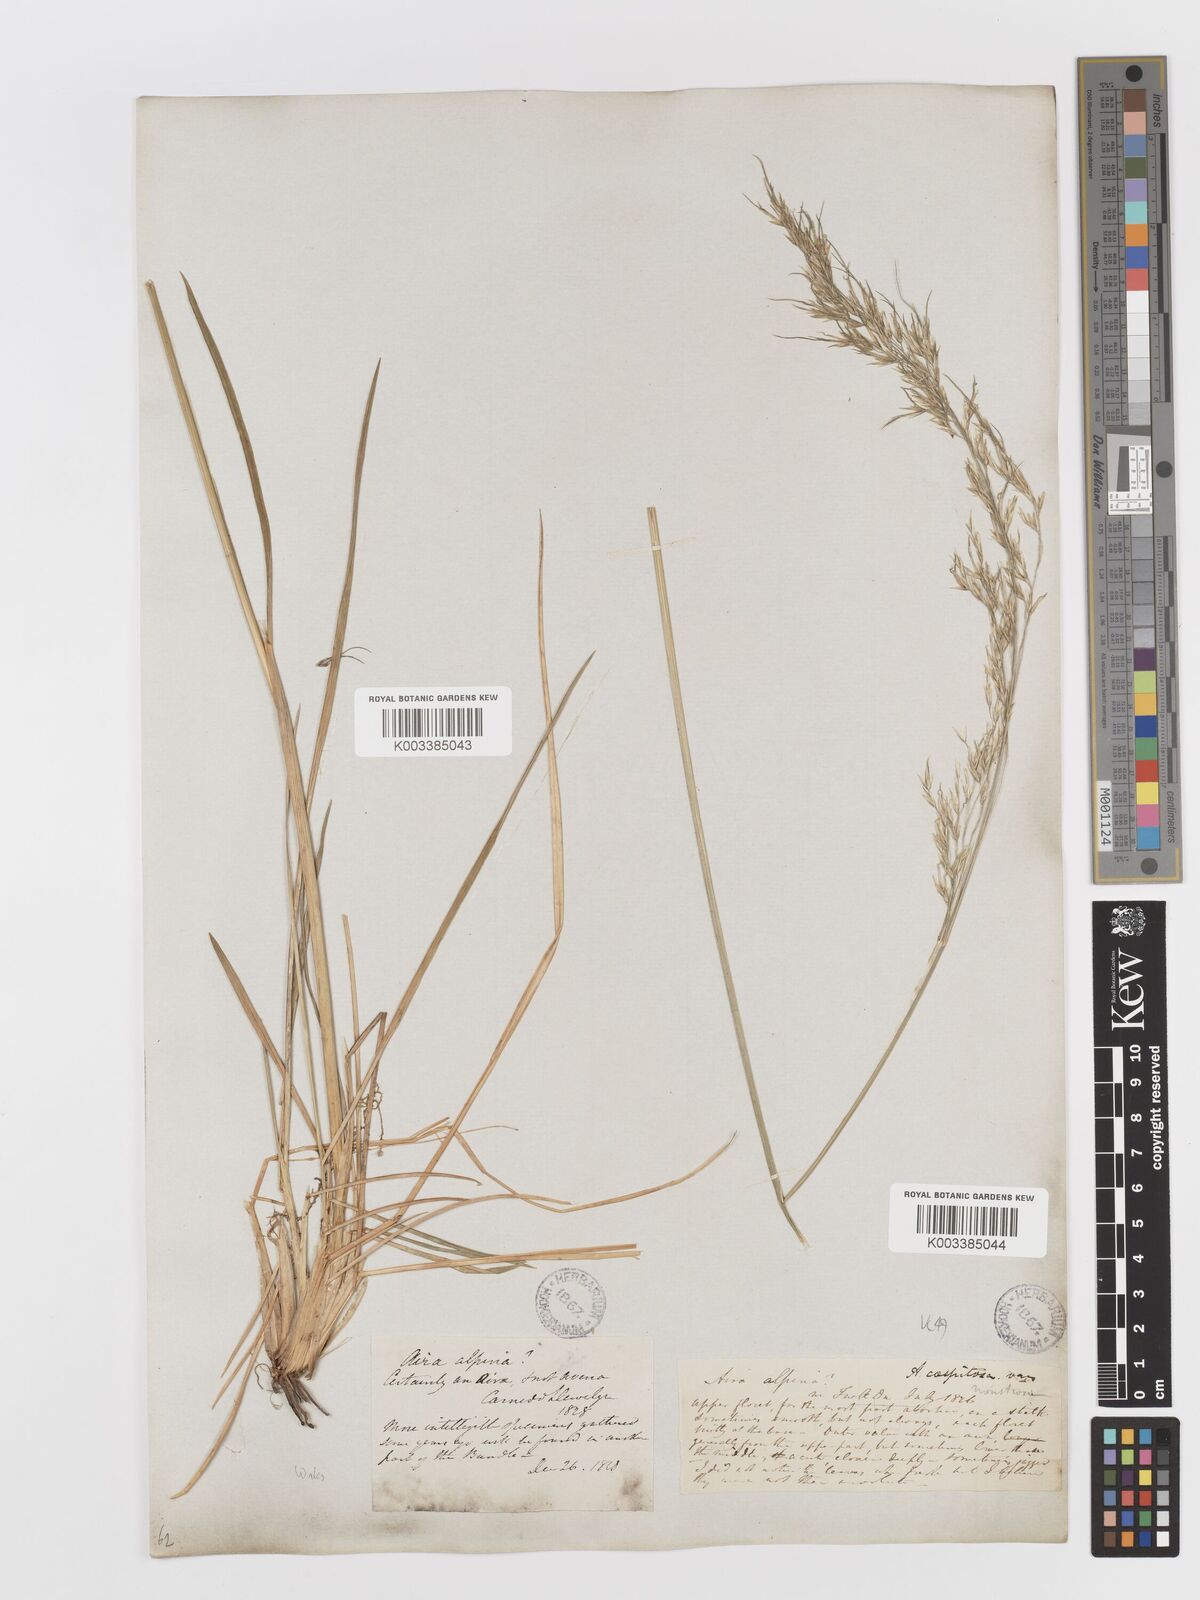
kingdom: Plantae
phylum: Tracheophyta
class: Liliopsida
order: Poales
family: Poaceae
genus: Deschampsia
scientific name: Deschampsia cespitosa
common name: Tufted hair-grass
